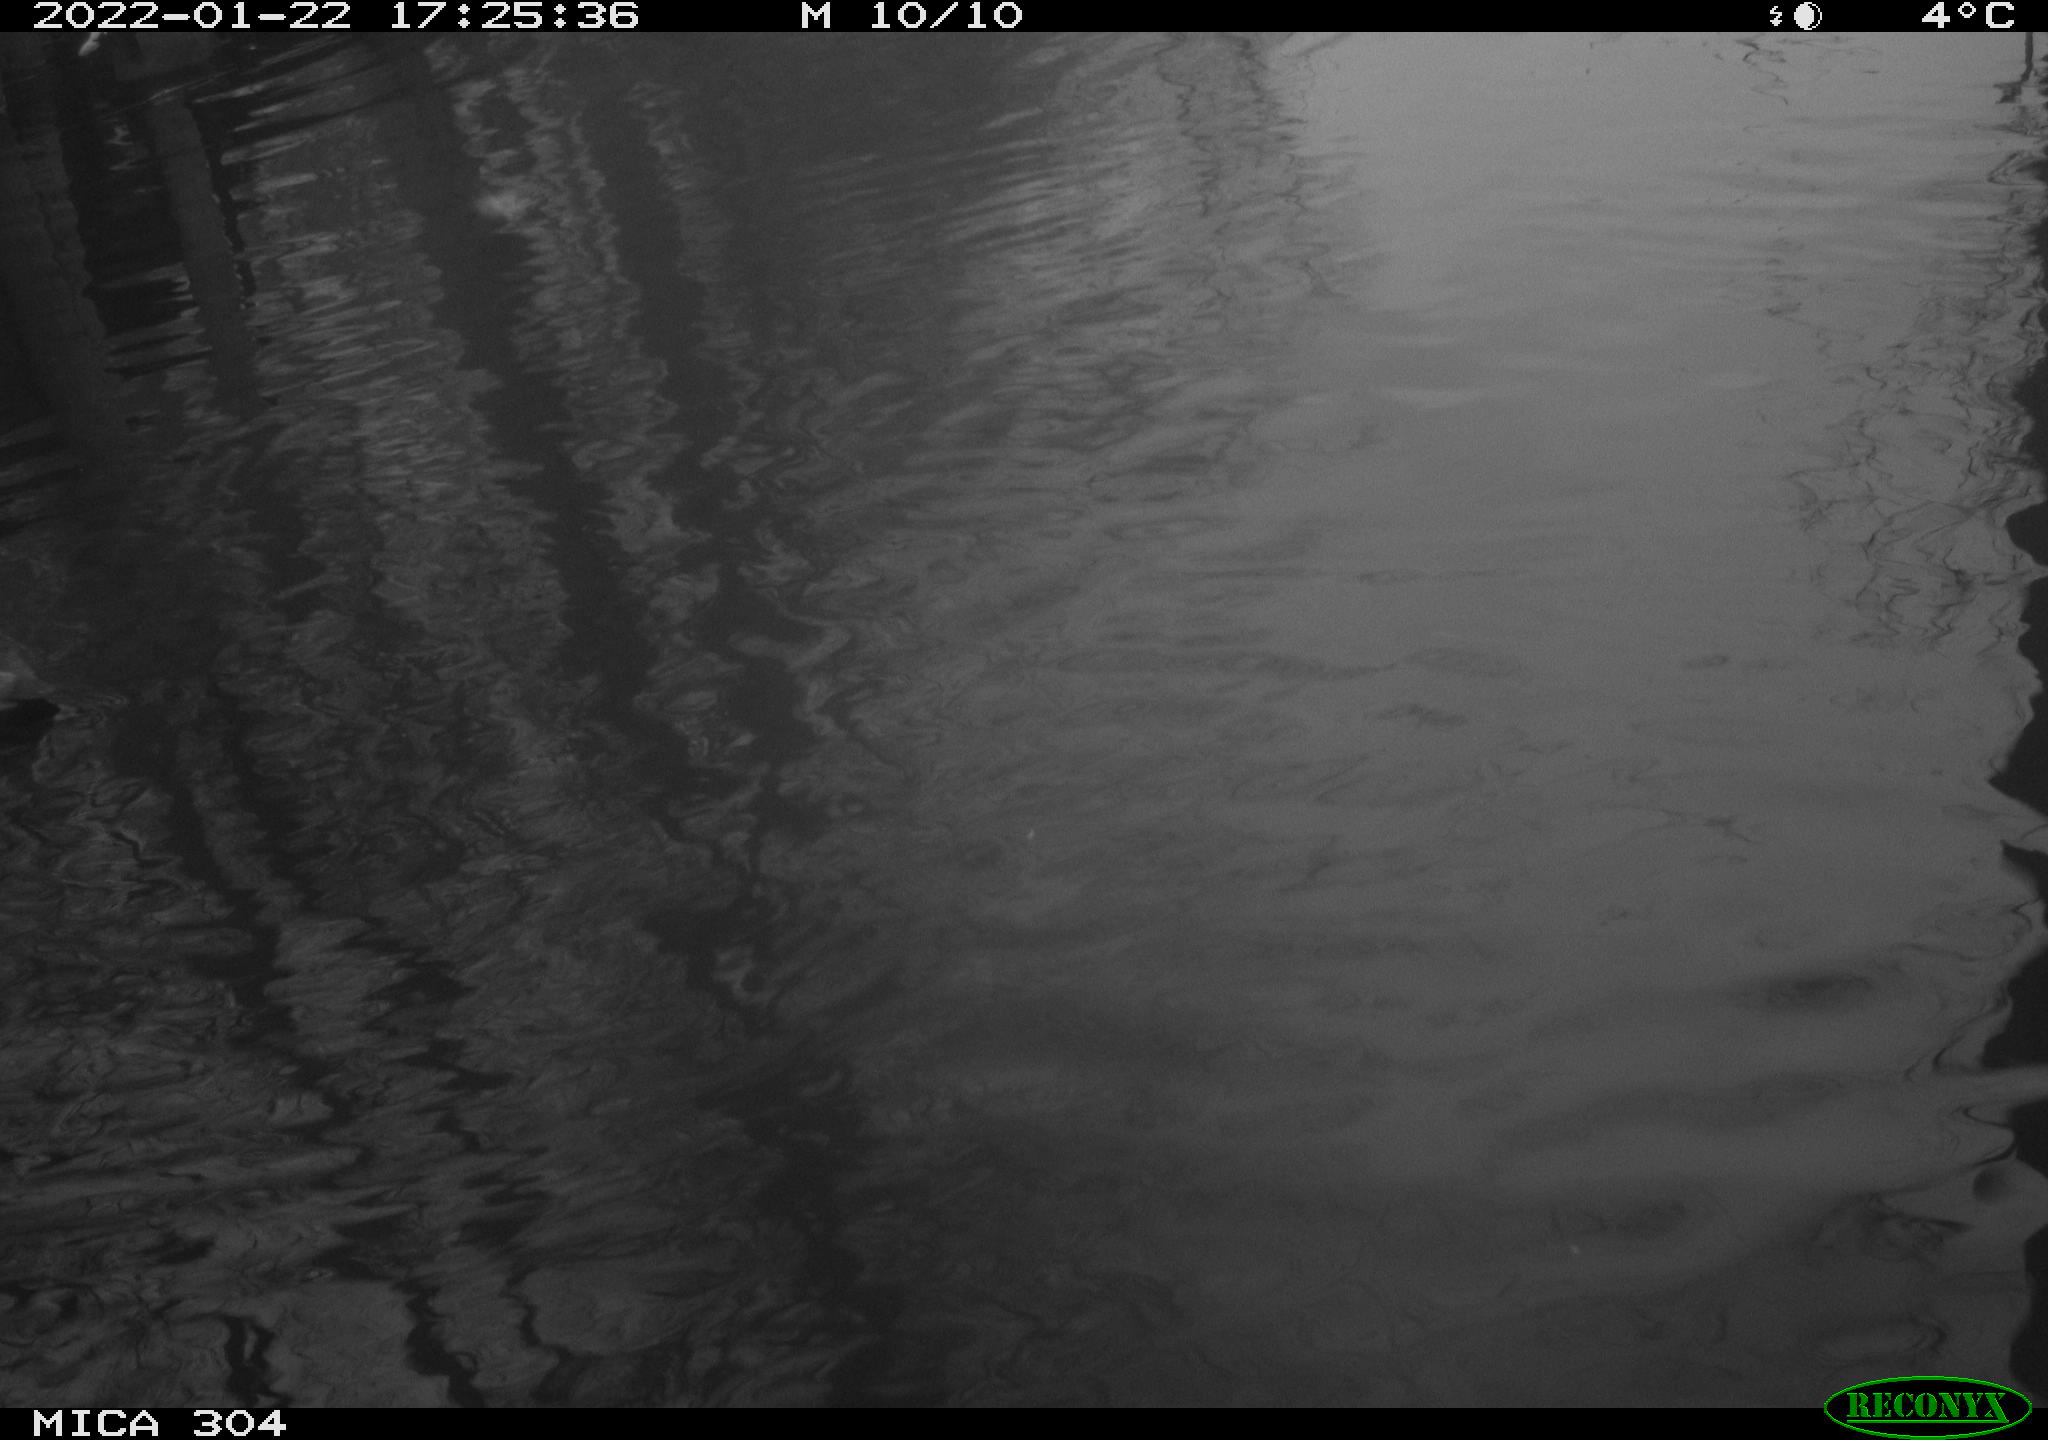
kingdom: Animalia
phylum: Chordata
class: Aves
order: Gruiformes
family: Rallidae
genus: Fulica
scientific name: Fulica atra
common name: Eurasian coot
